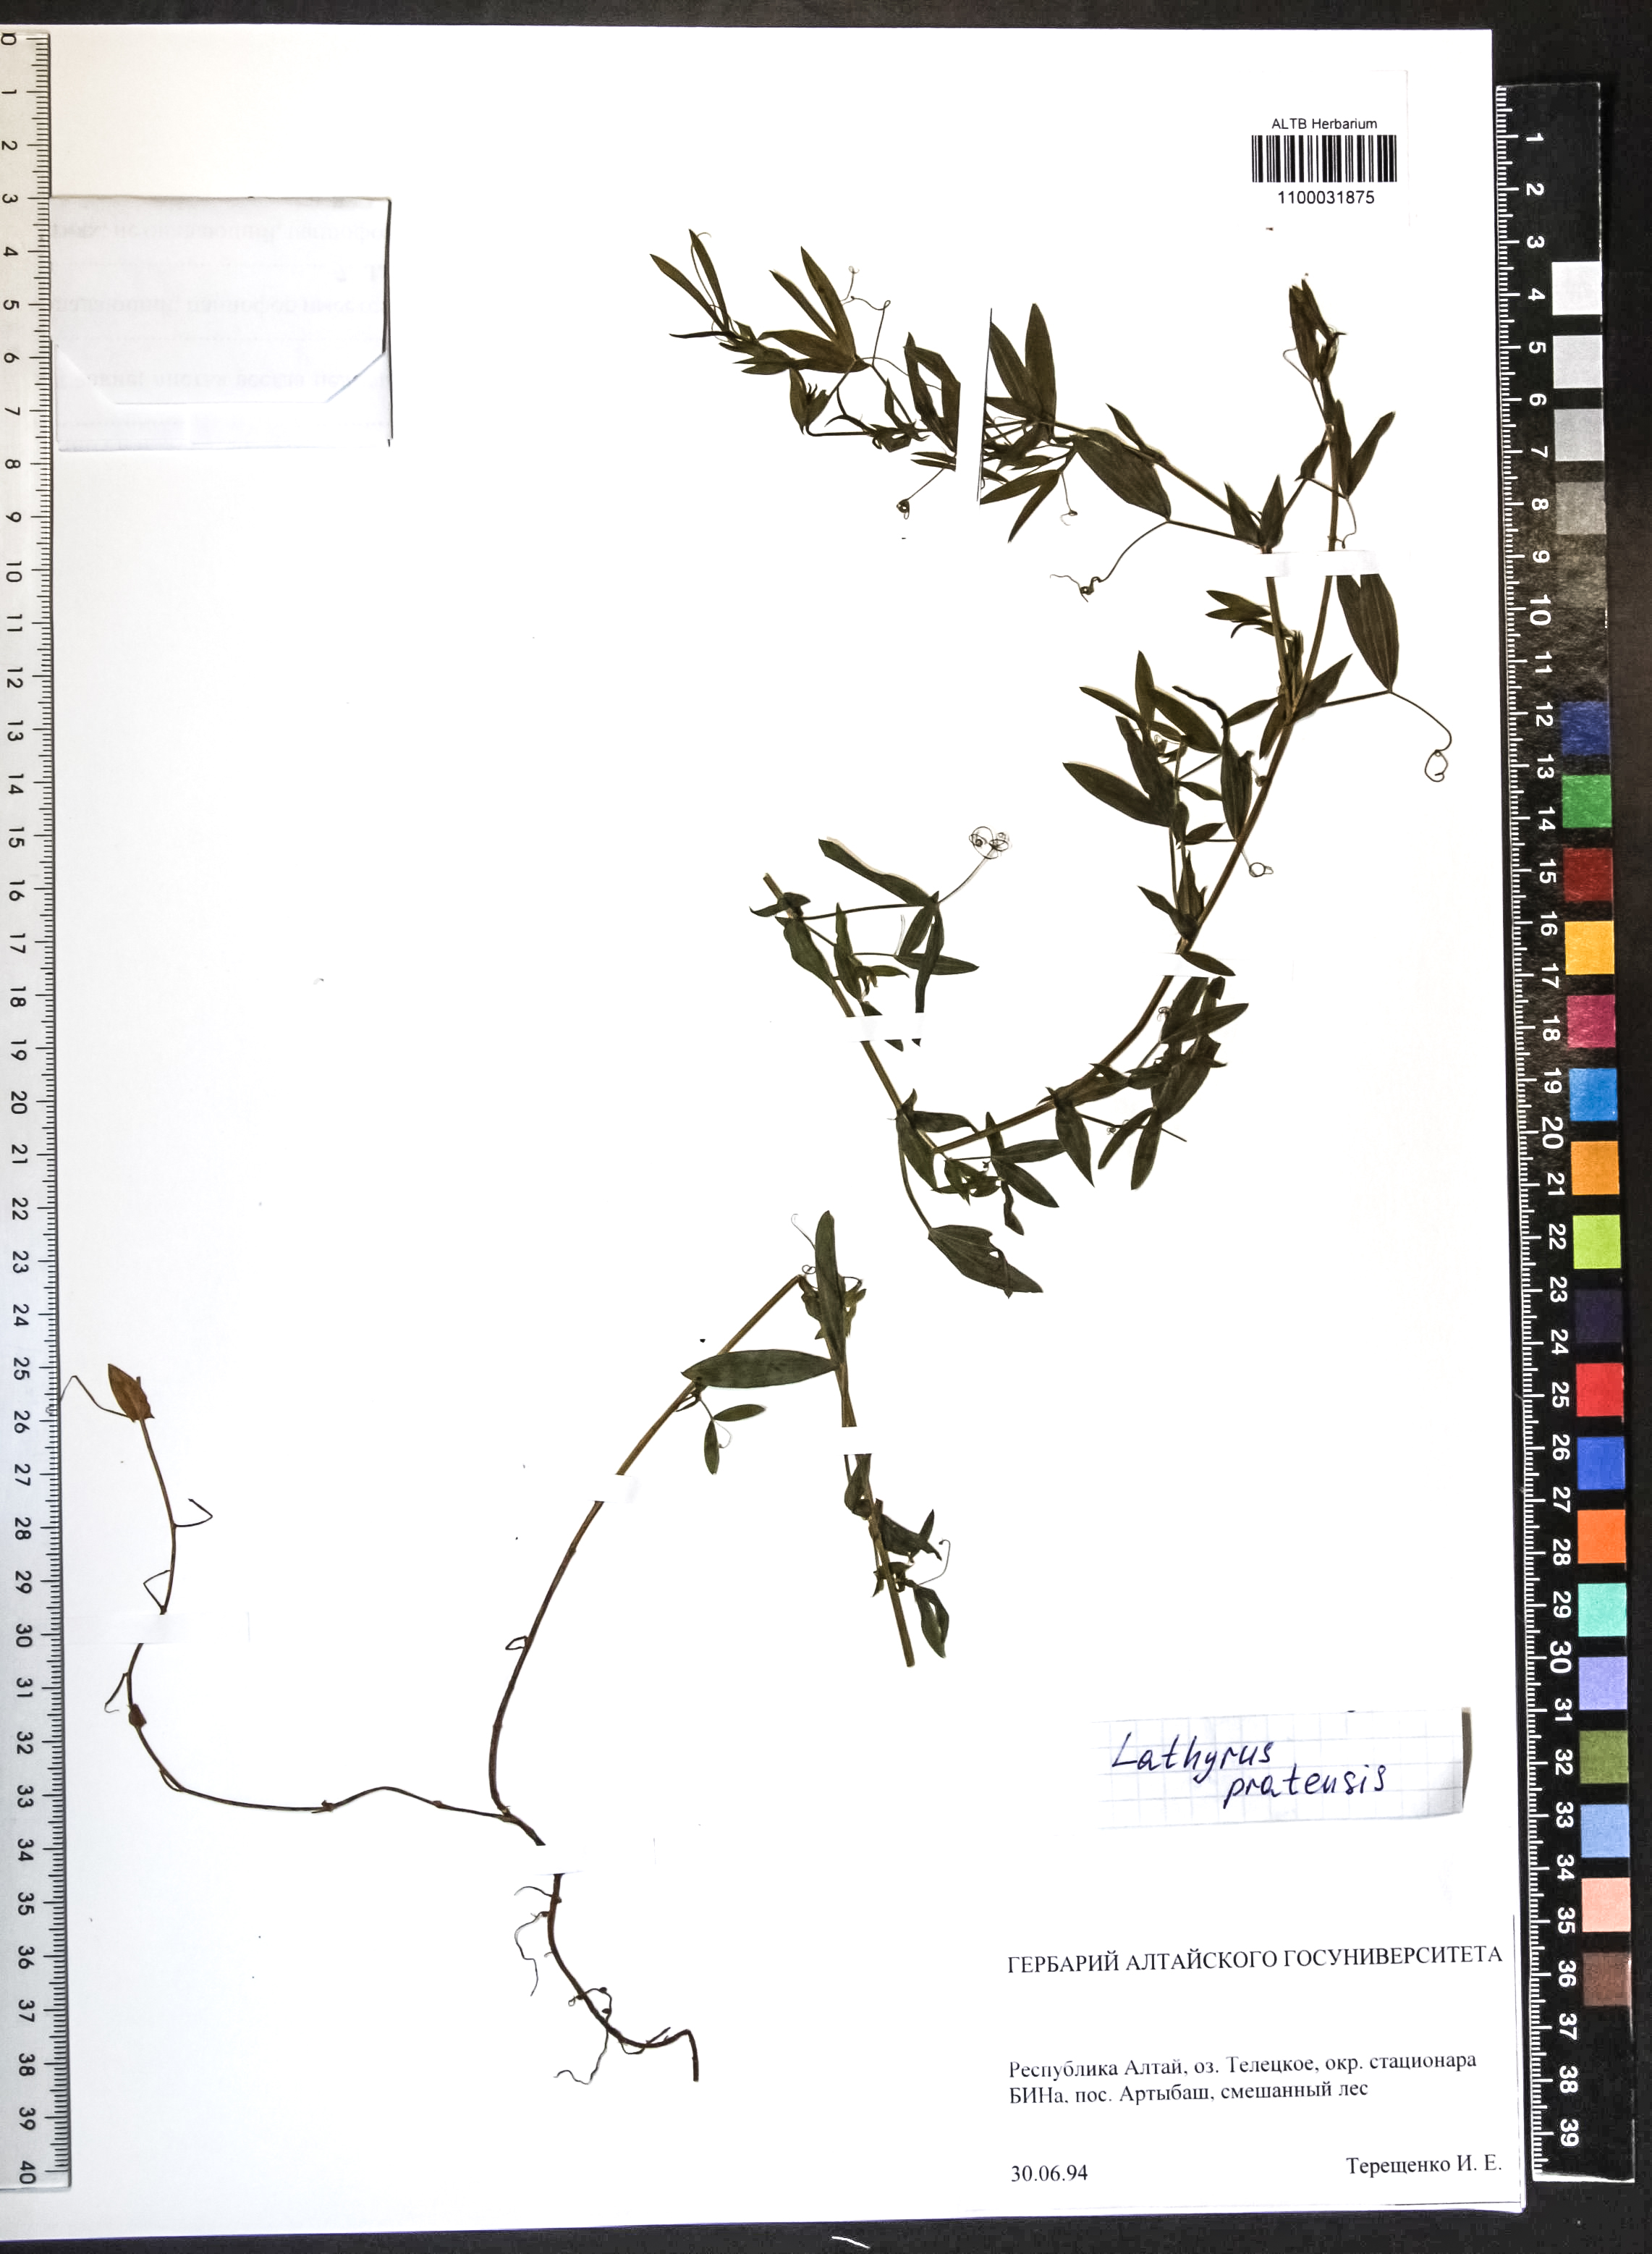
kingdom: Plantae
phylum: Tracheophyta
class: Magnoliopsida
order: Fabales
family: Fabaceae
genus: Lathyrus
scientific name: Lathyrus pratensis
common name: Meadow vetchling
